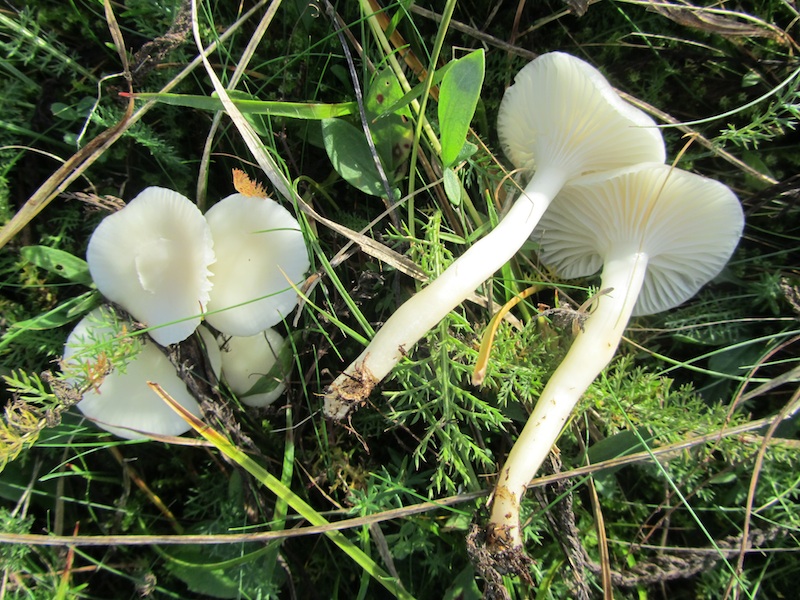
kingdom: Fungi
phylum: Basidiomycota
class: Agaricomycetes
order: Agaricales
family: Hygrophoraceae
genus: Cuphophyllus
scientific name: Cuphophyllus virgineus
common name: snehvid vokshat
